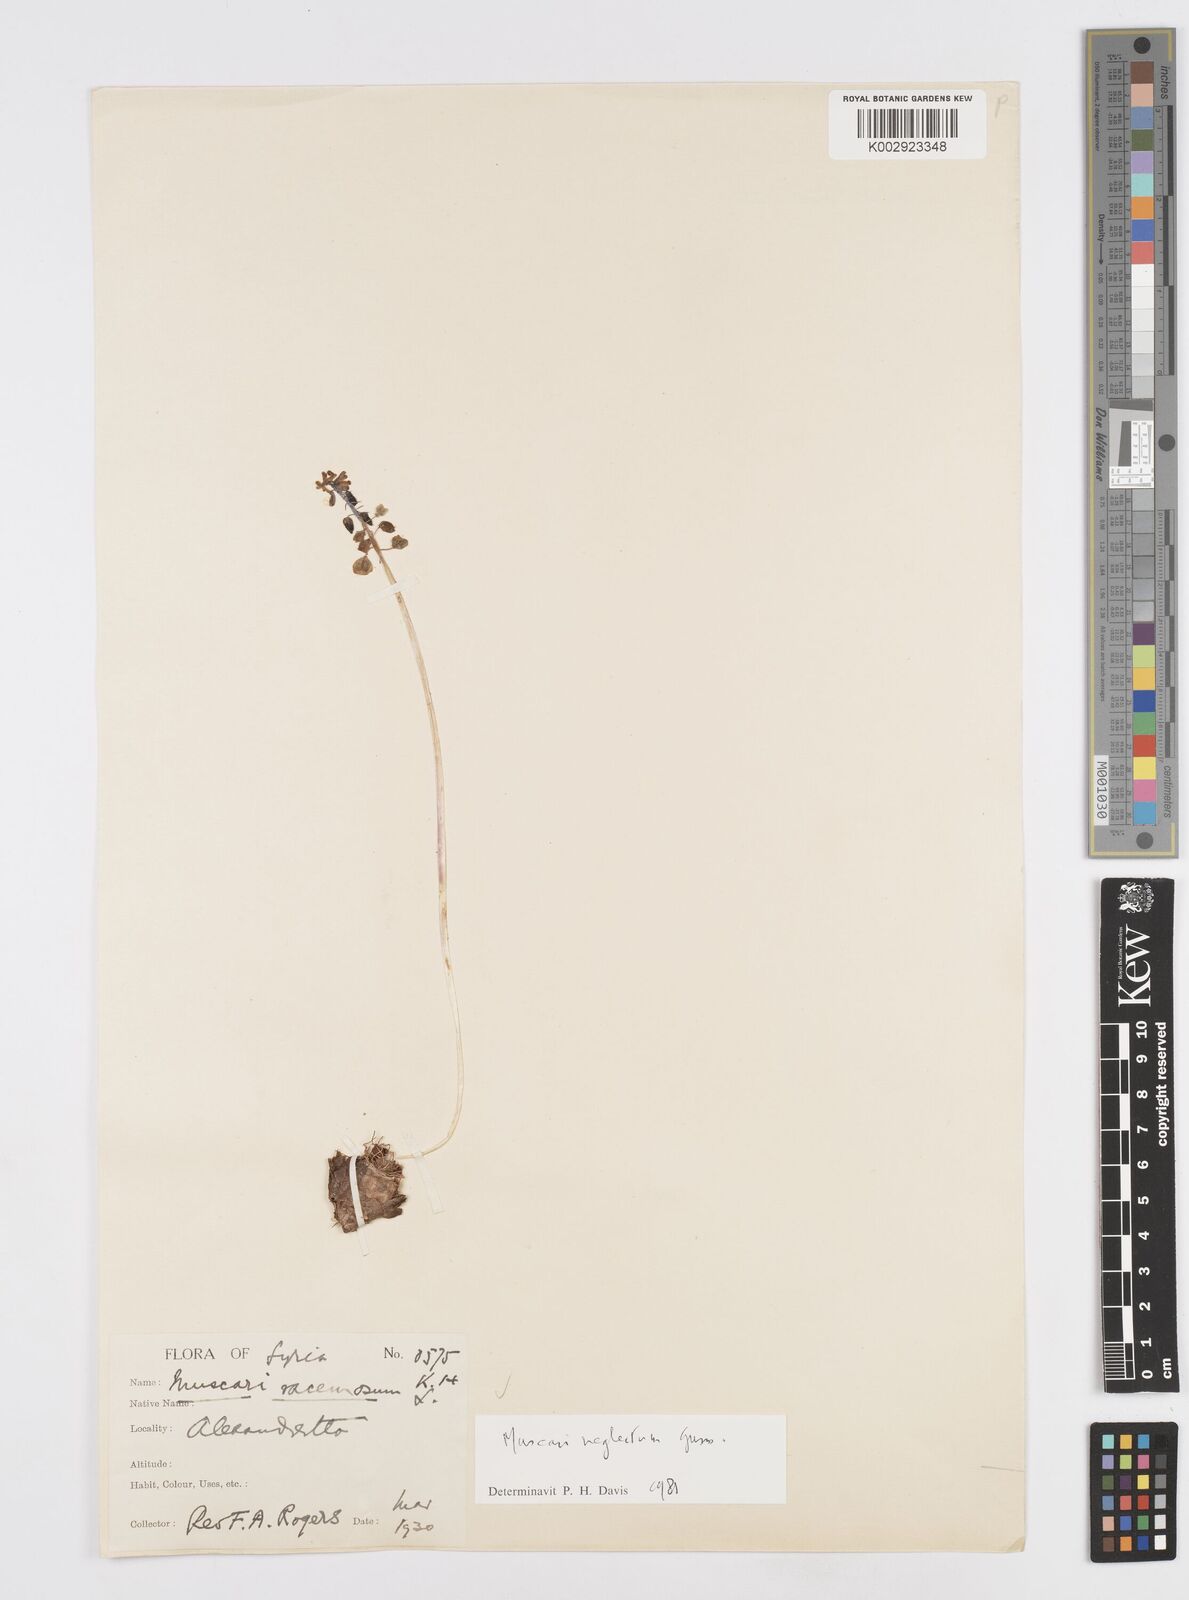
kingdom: Plantae
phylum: Tracheophyta
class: Liliopsida
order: Asparagales
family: Asparagaceae
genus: Muscarimia
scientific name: Muscarimia muscari
